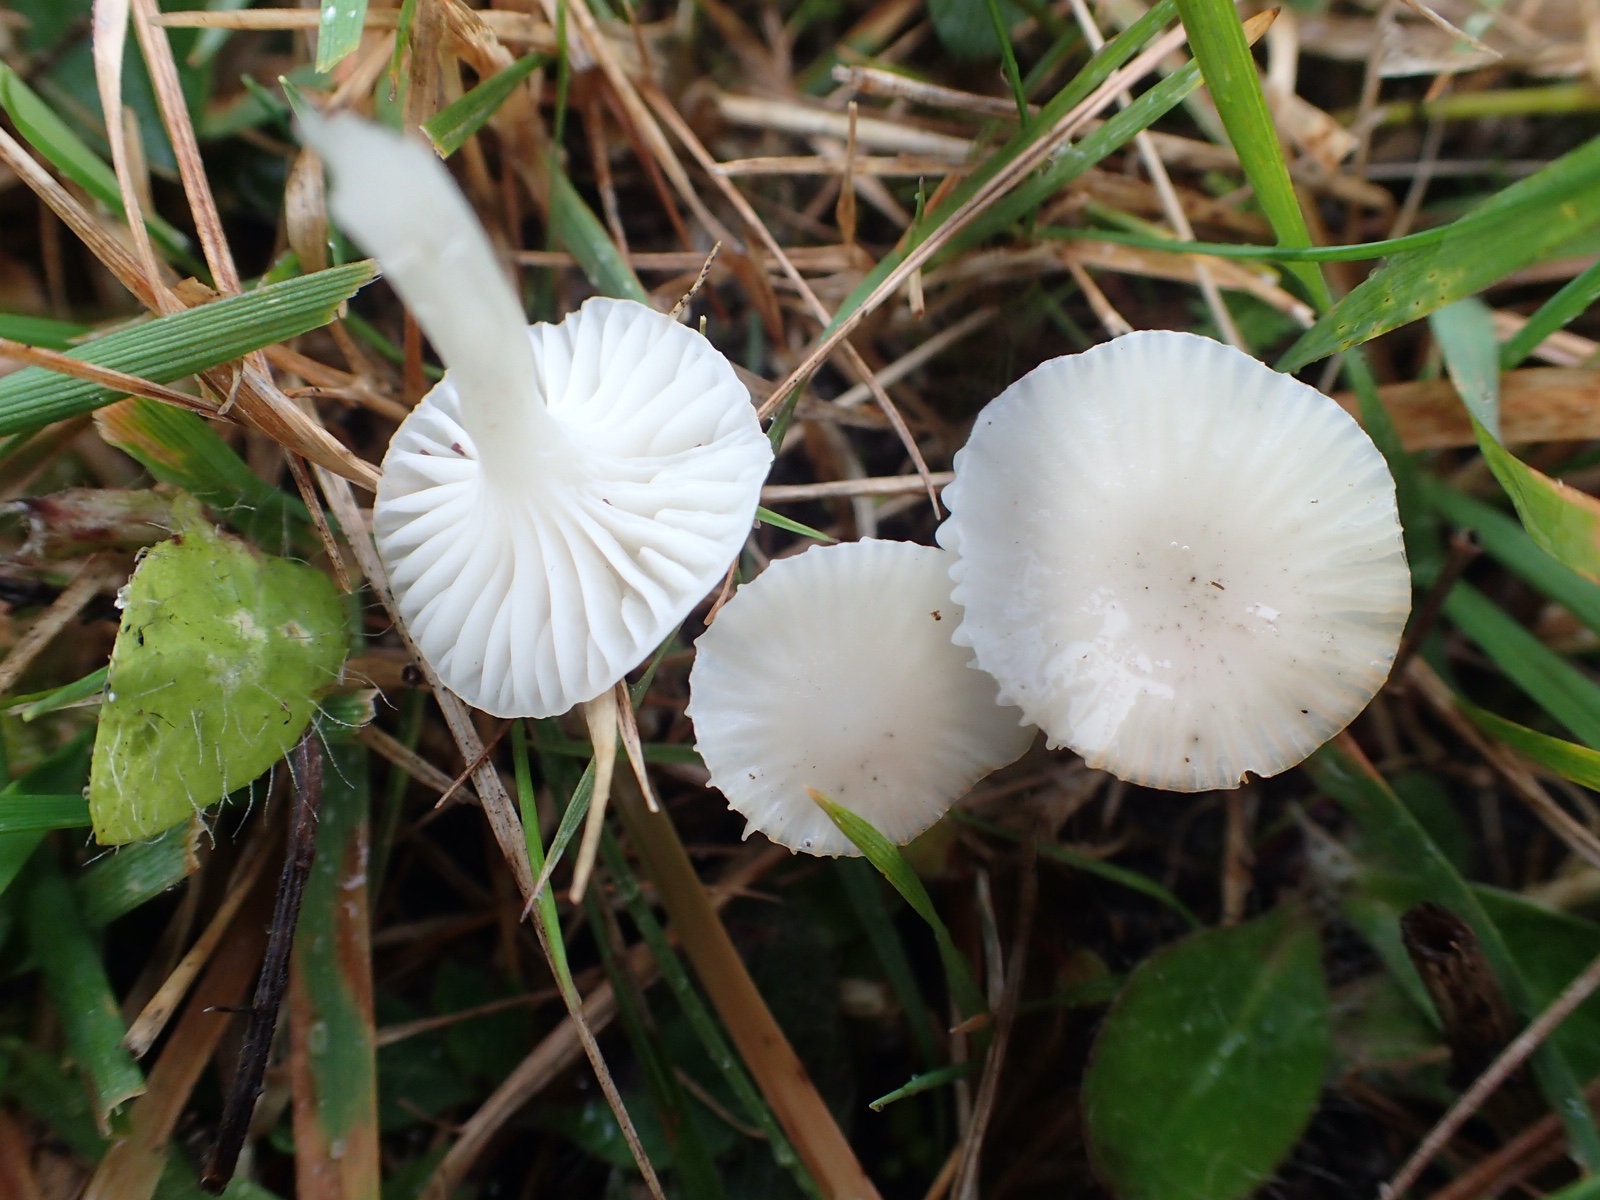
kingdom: Fungi
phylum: Basidiomycota
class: Agaricomycetes
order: Agaricales
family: Hygrophoraceae
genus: Cuphophyllus
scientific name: Cuphophyllus virgineus
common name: snehvid vokshat
